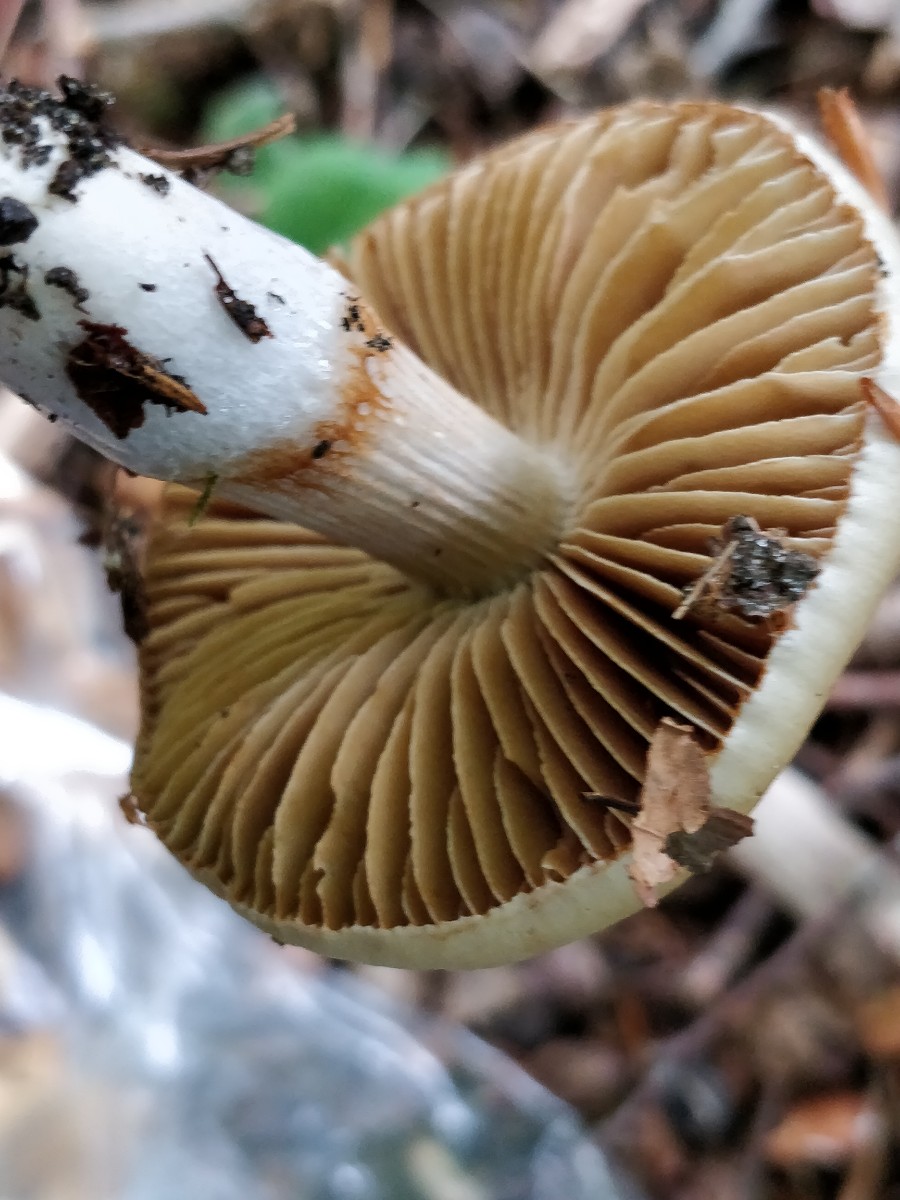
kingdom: Fungi
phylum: Basidiomycota
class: Agaricomycetes
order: Agaricales
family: Cortinariaceae
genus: Cortinarius
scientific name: Cortinarius elatior
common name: høj slørhat
